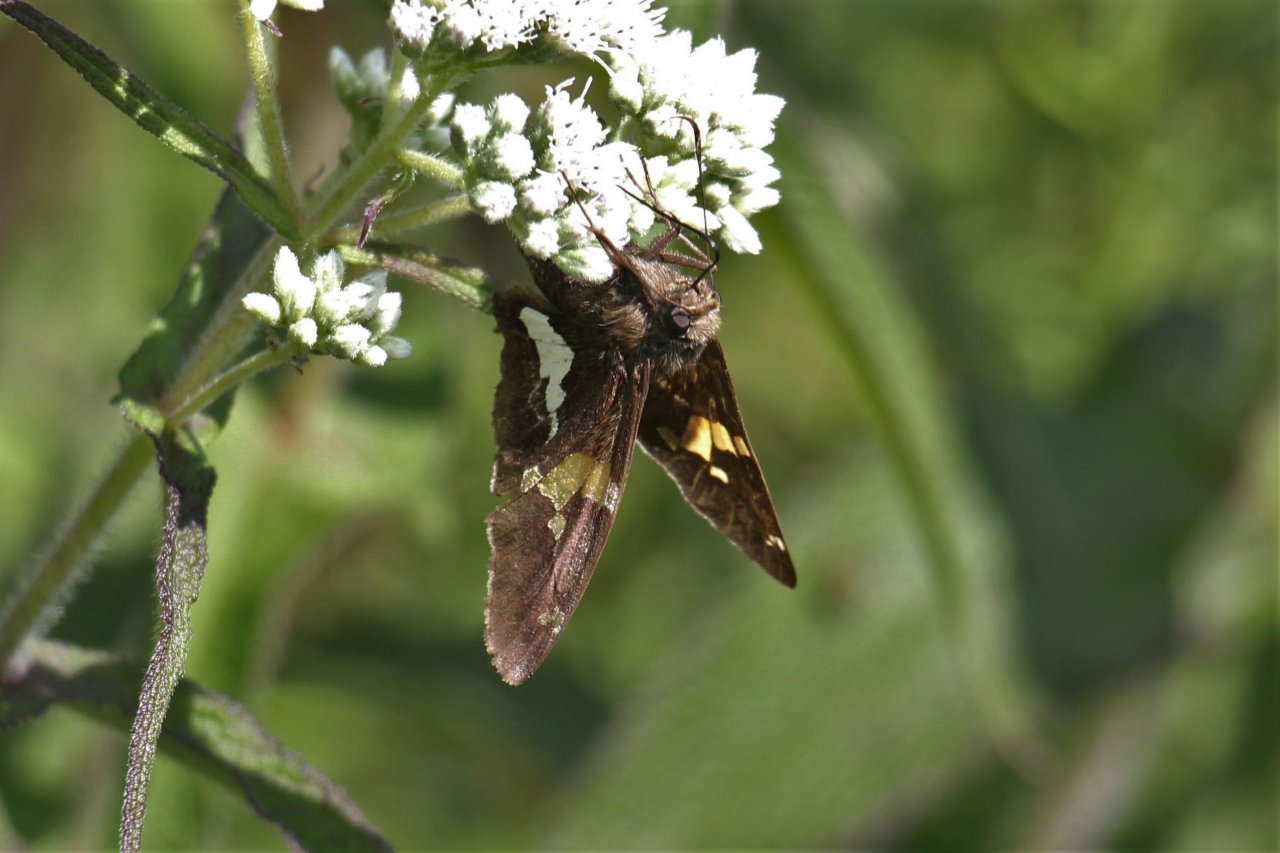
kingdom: Animalia
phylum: Arthropoda
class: Insecta
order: Lepidoptera
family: Hesperiidae
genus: Epargyreus
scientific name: Epargyreus clarus
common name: Silver-spotted Skipper
